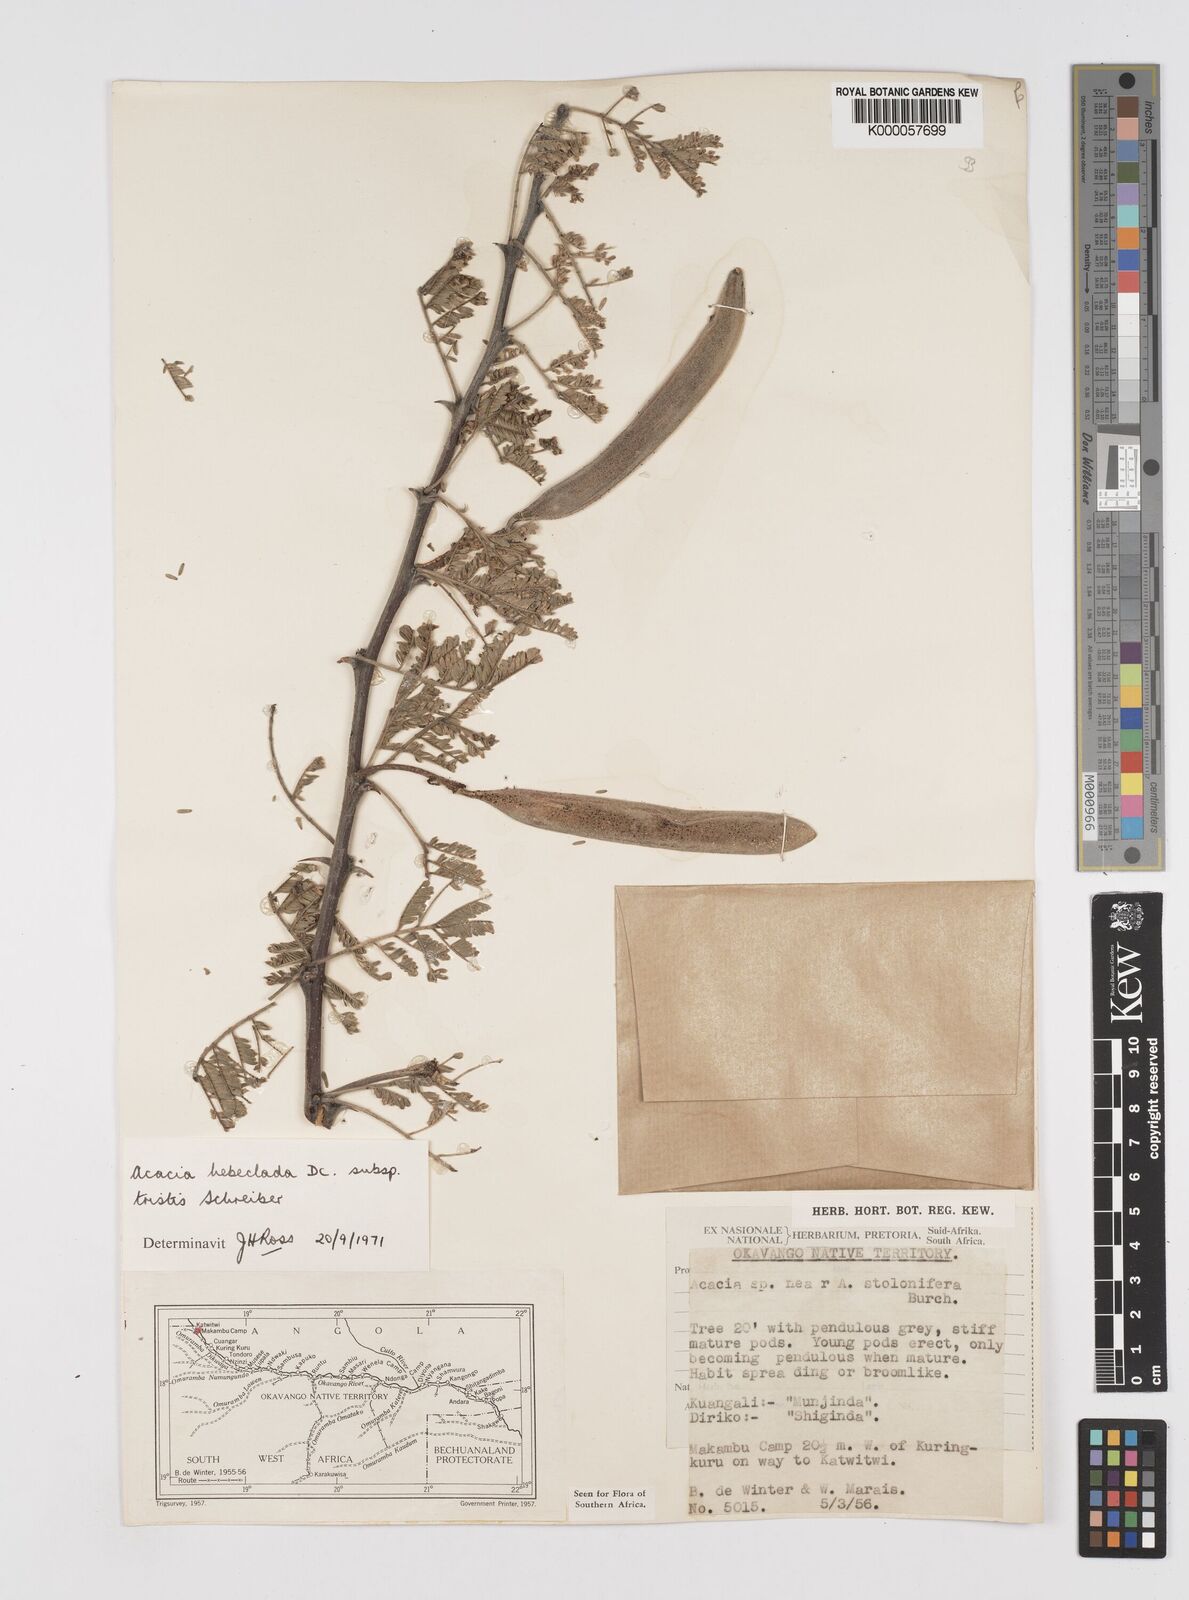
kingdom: Plantae
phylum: Tracheophyta
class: Magnoliopsida
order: Fabales
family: Fabaceae
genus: Vachellia
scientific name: Vachellia hebeclada
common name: Candle thorn
